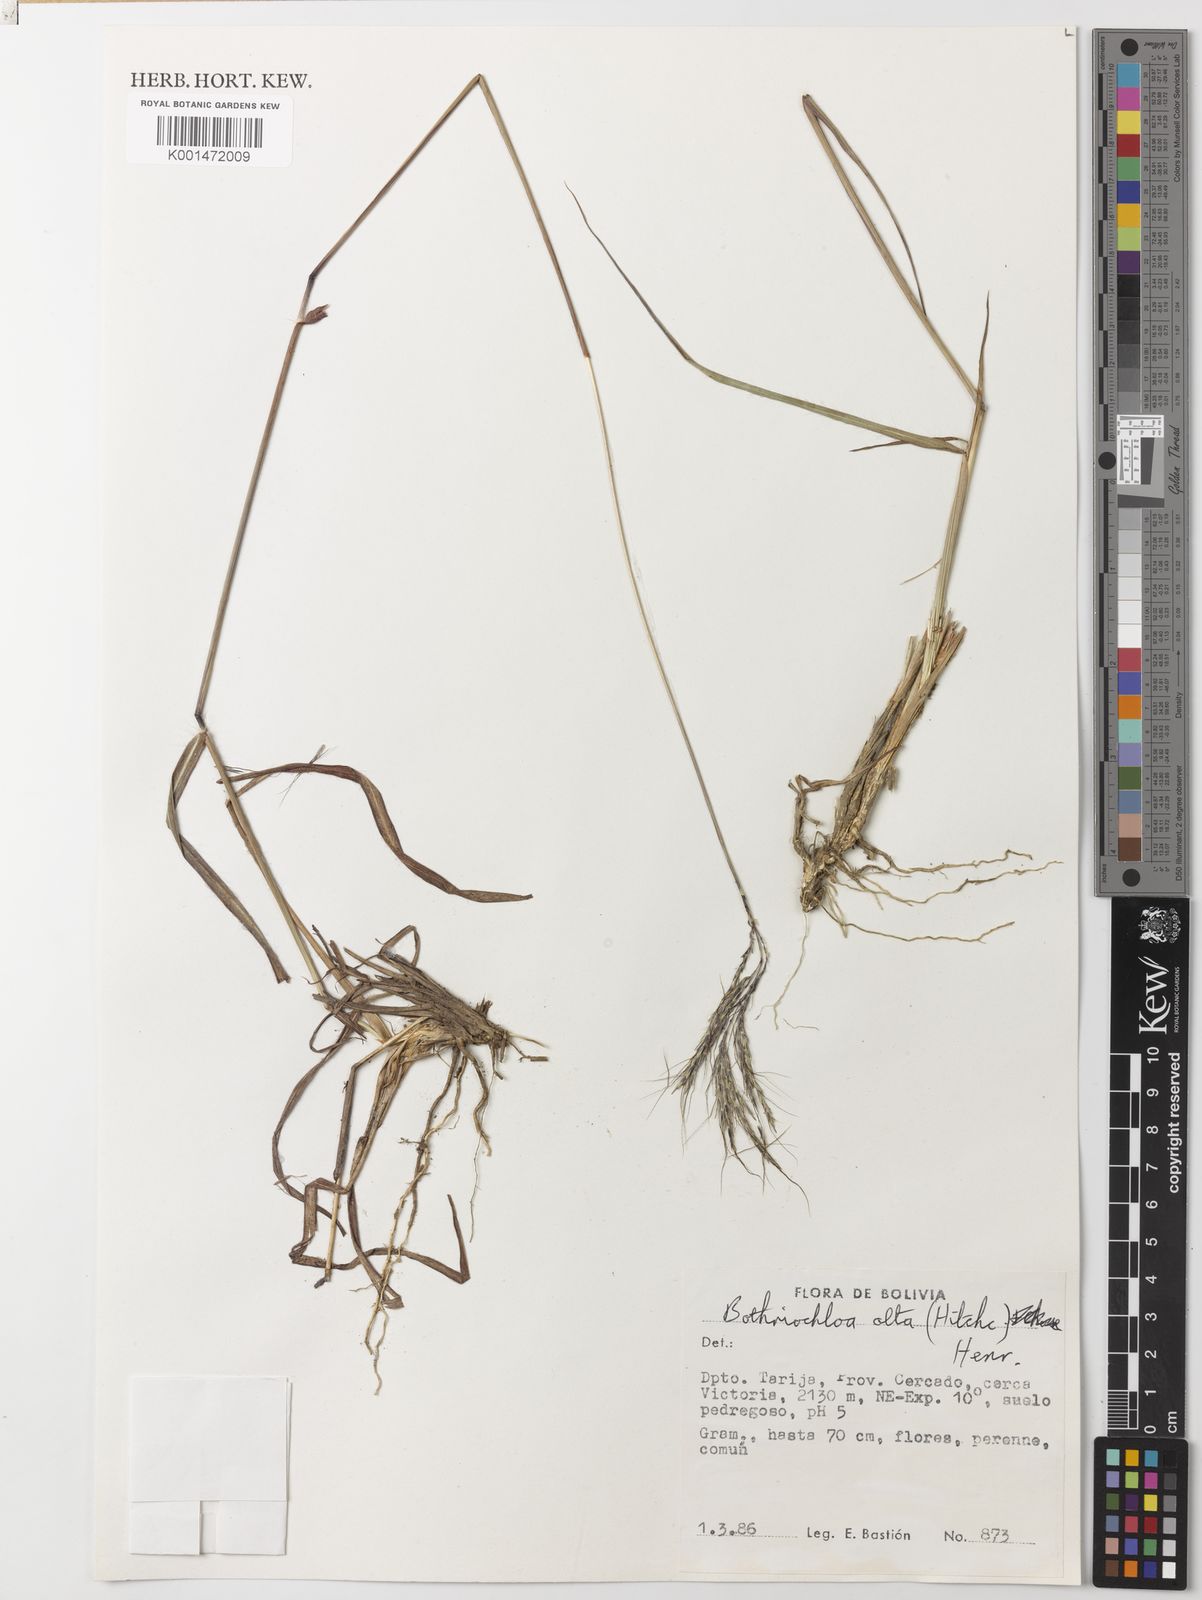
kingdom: Plantae
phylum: Tracheophyta
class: Liliopsida
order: Poales
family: Poaceae
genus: Bothriochloa
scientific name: Bothriochloa bladhii
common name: Caucasian bluestem
